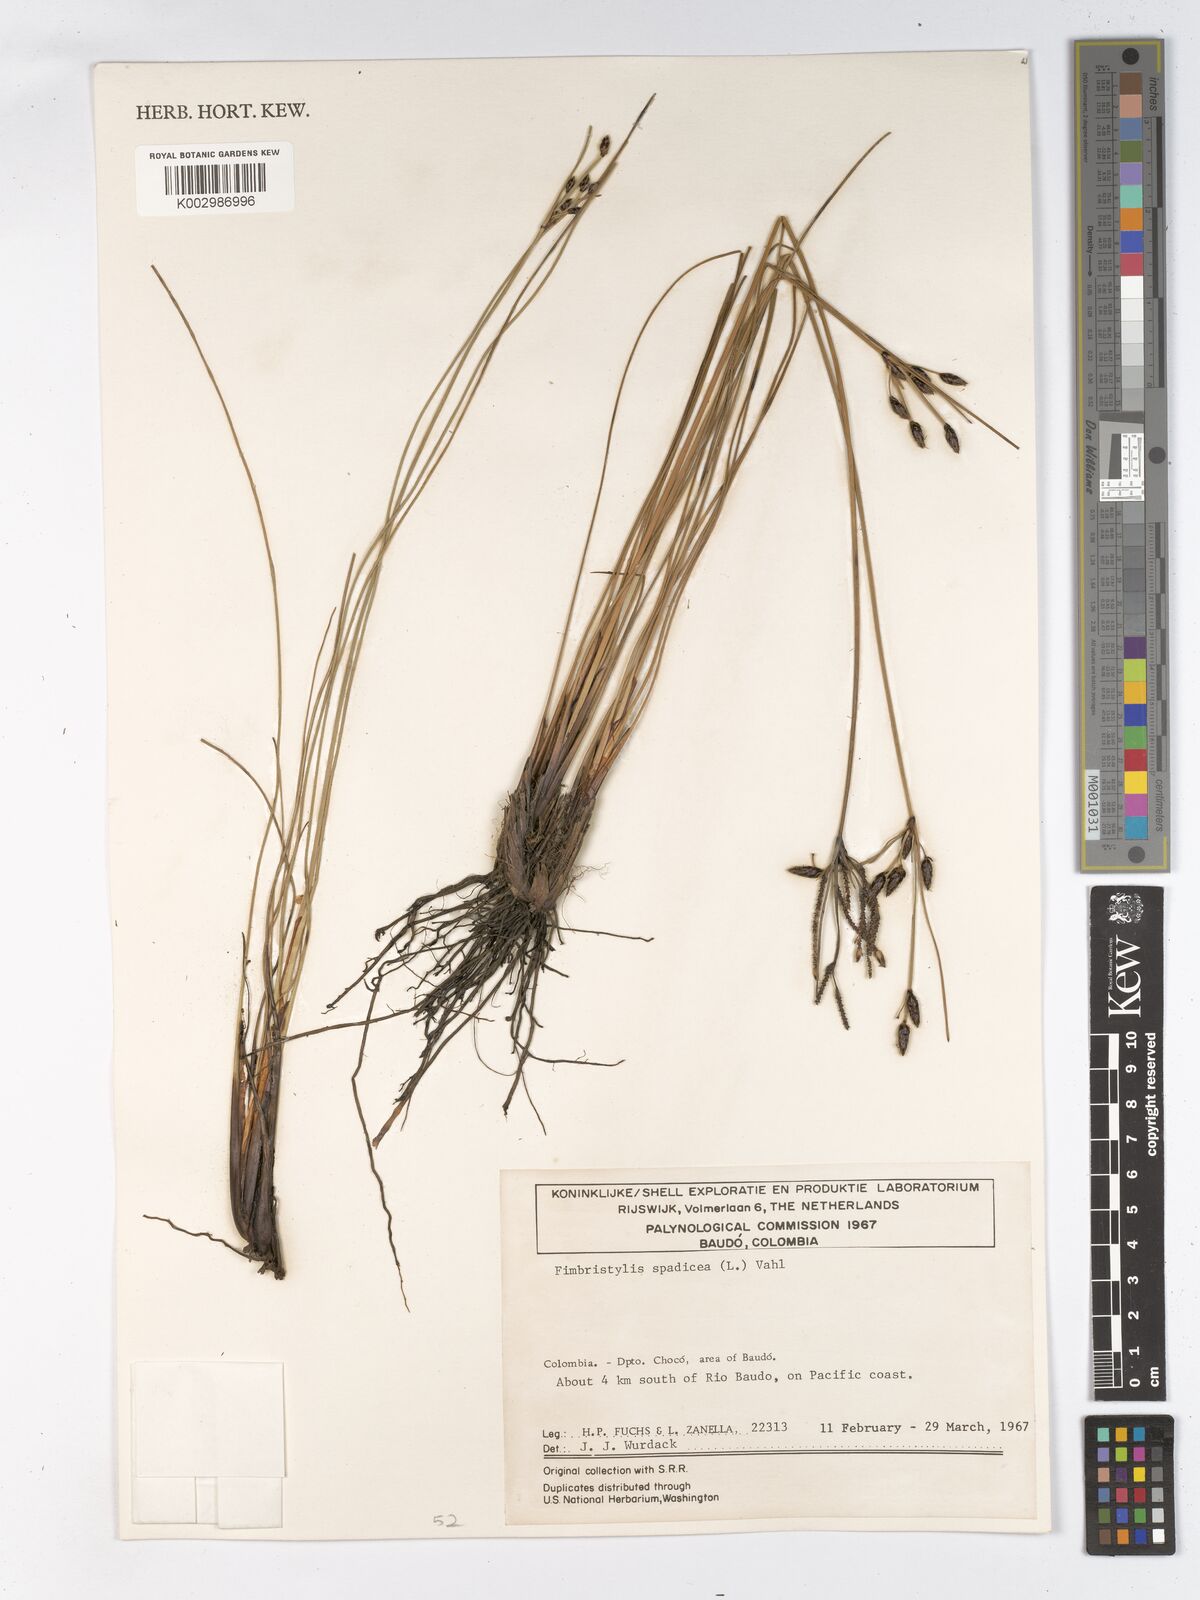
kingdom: Plantae
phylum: Tracheophyta
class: Liliopsida
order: Poales
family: Cyperaceae
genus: Fimbristylis
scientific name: Fimbristylis spadicea
